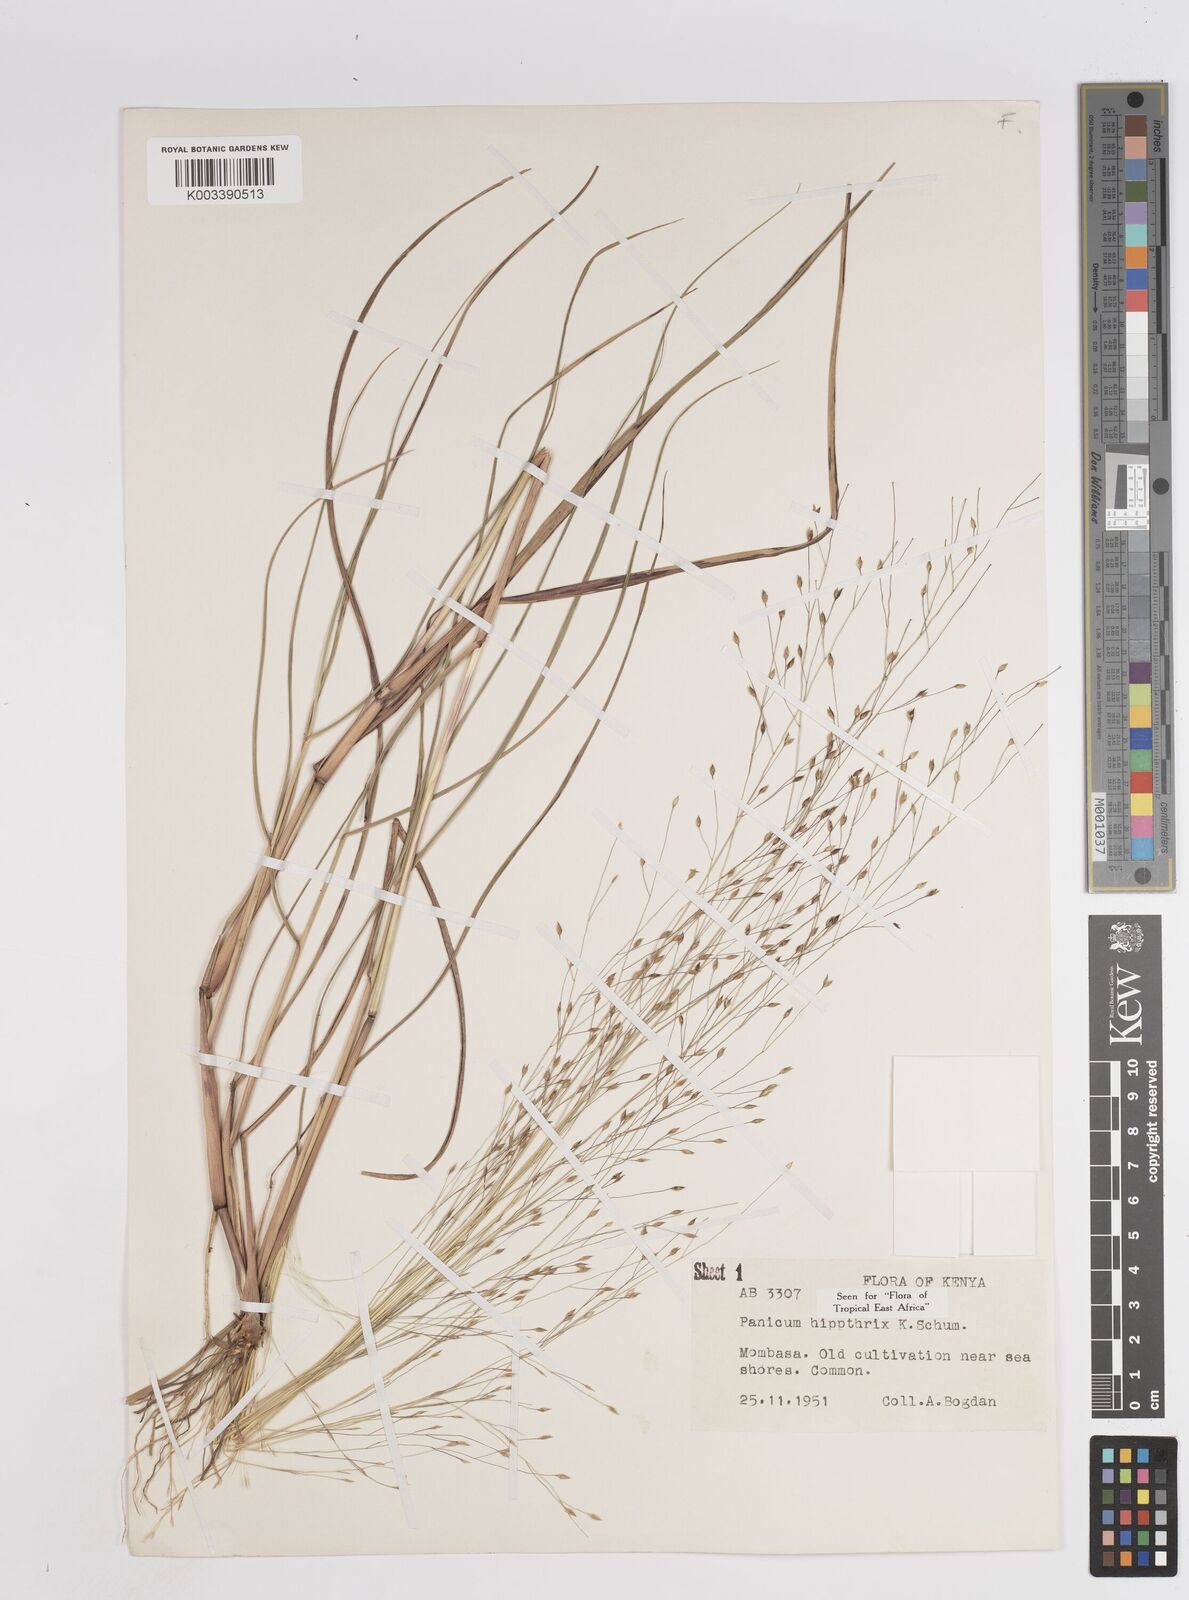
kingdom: Plantae
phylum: Tracheophyta
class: Liliopsida
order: Poales
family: Poaceae
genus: Panicum
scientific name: Panicum hippothrix
